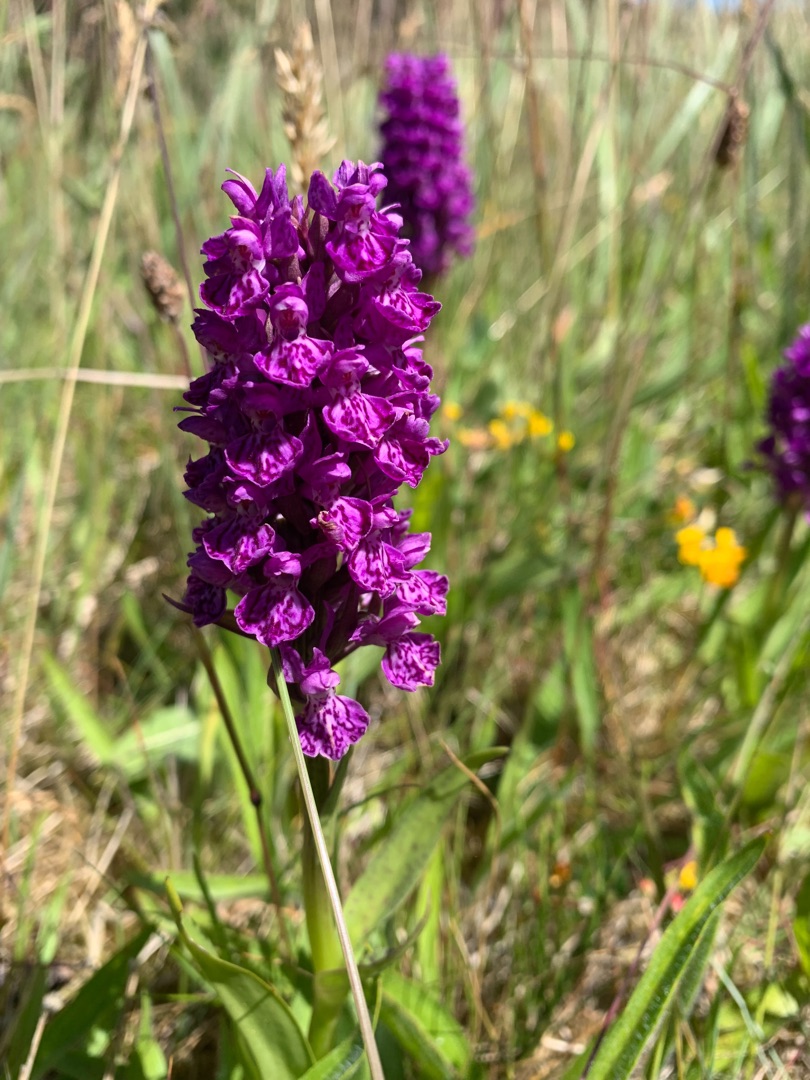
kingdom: Plantae
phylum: Tracheophyta
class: Liliopsida
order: Asparagales
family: Orchidaceae
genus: Dactylorhiza
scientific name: Dactylorhiza majalis
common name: Purpur-gøgeurt
